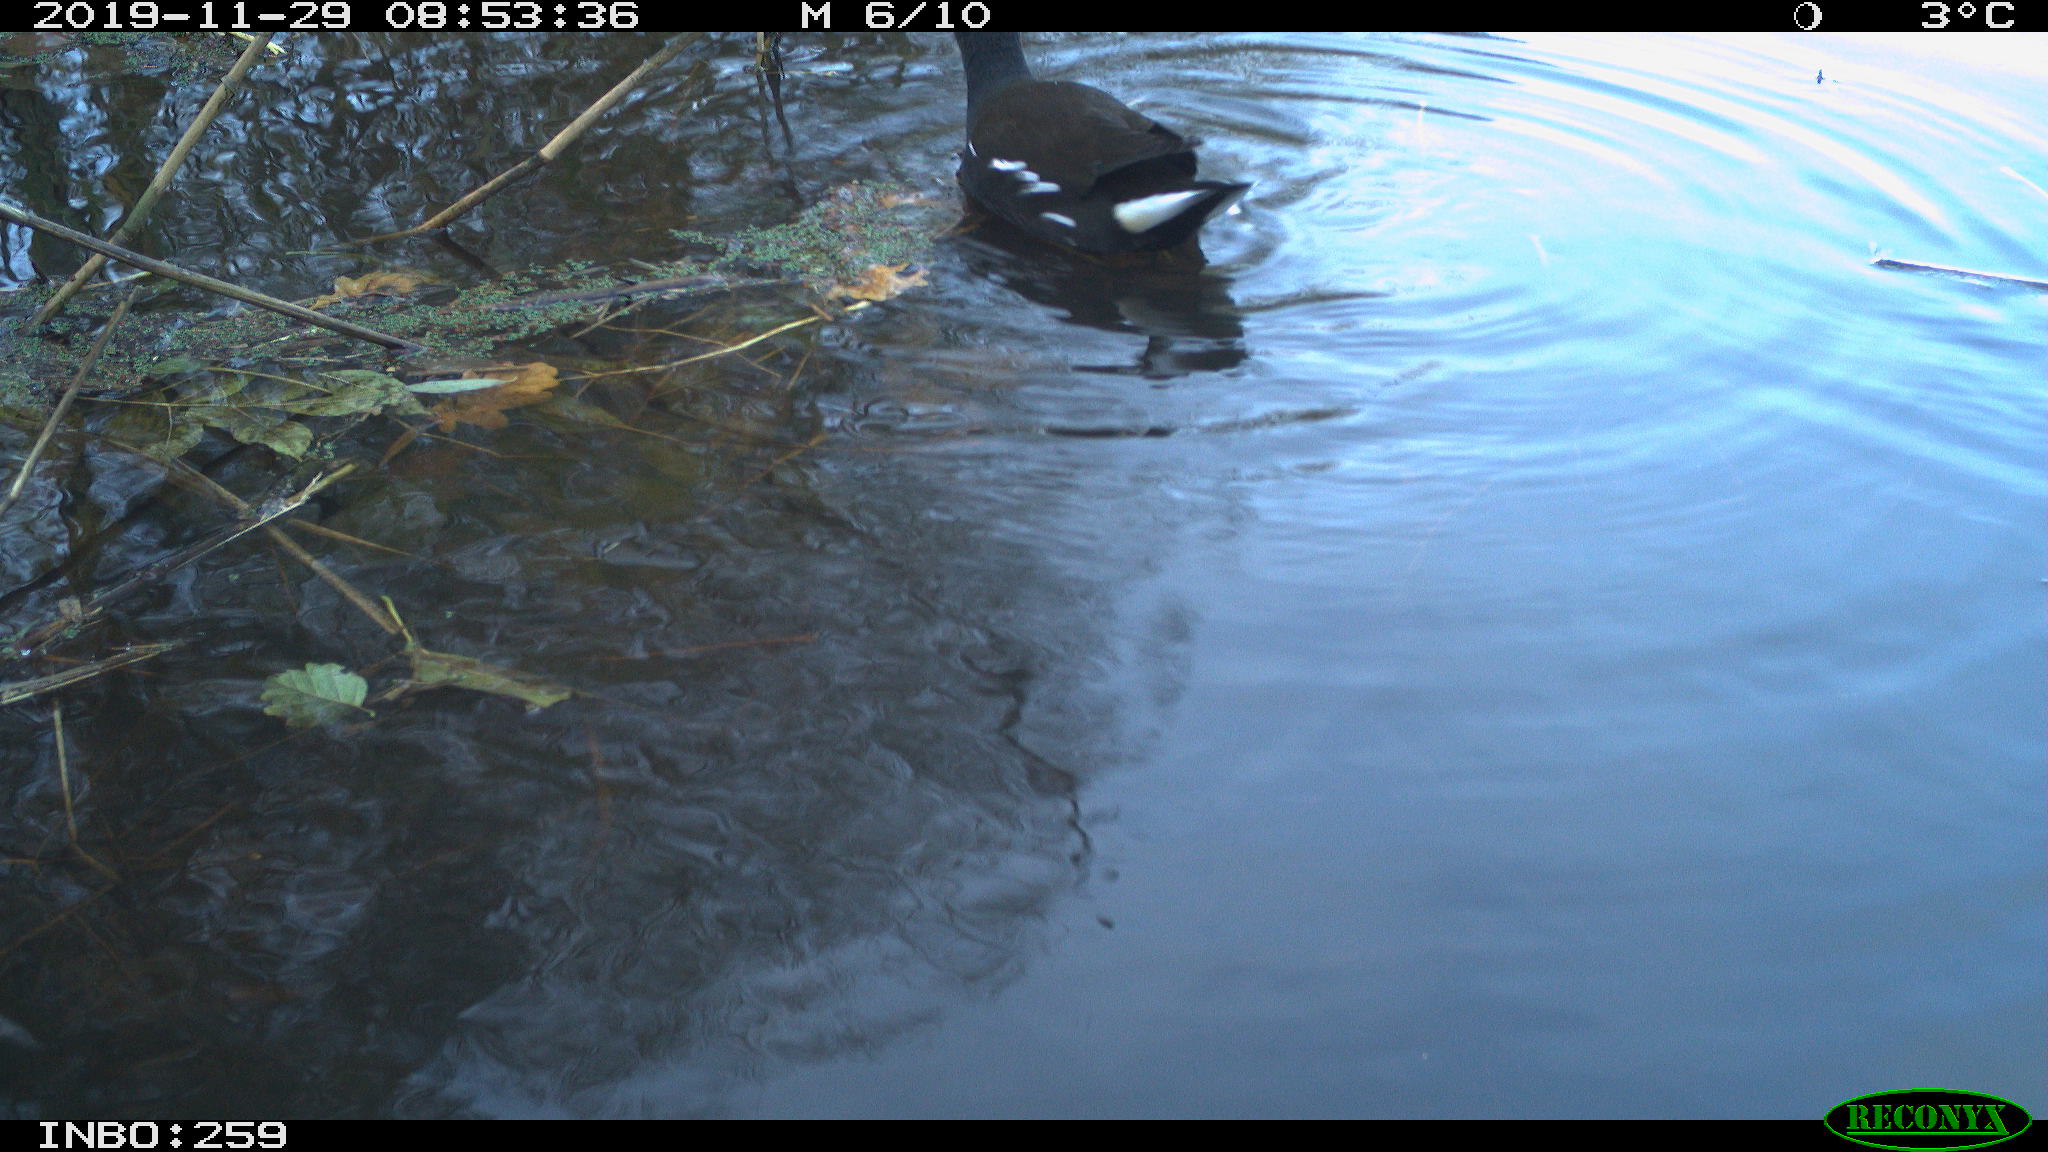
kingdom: Animalia
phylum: Chordata
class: Aves
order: Gruiformes
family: Rallidae
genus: Gallinula
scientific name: Gallinula chloropus
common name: Common moorhen
